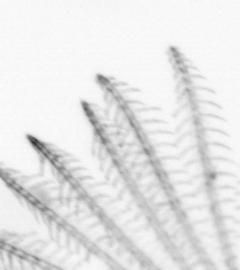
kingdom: Animalia
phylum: Arthropoda
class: Maxillopoda
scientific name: Maxillopoda
